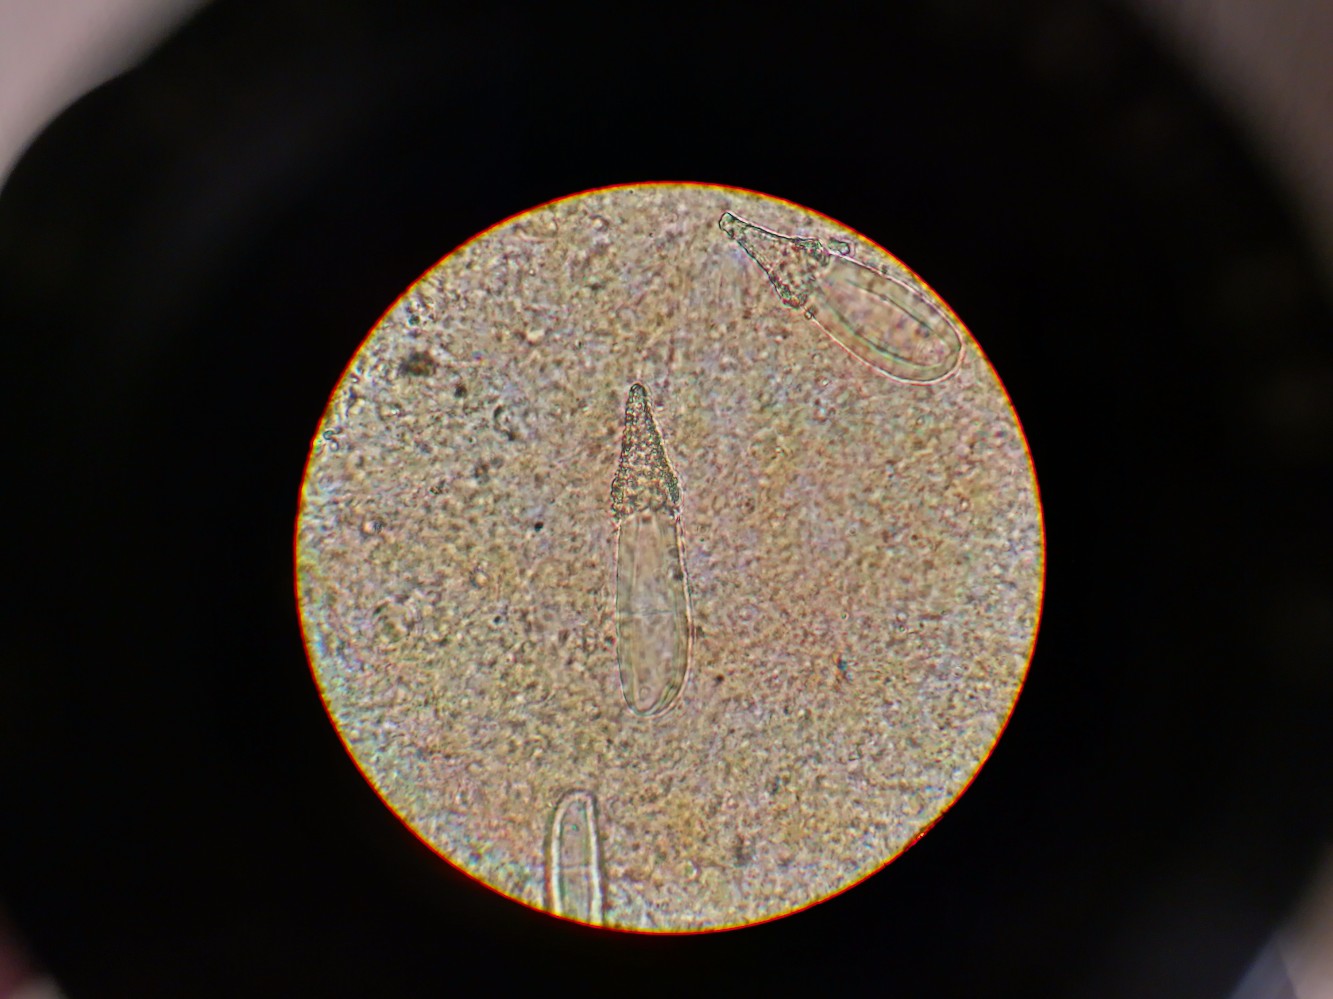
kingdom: Fungi
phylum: Basidiomycota
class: Agaricomycetes
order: Agaricales
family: Pleurotaceae
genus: Hohenbuehelia
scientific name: Hohenbuehelia auriscalpium
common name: spatel-filthat
